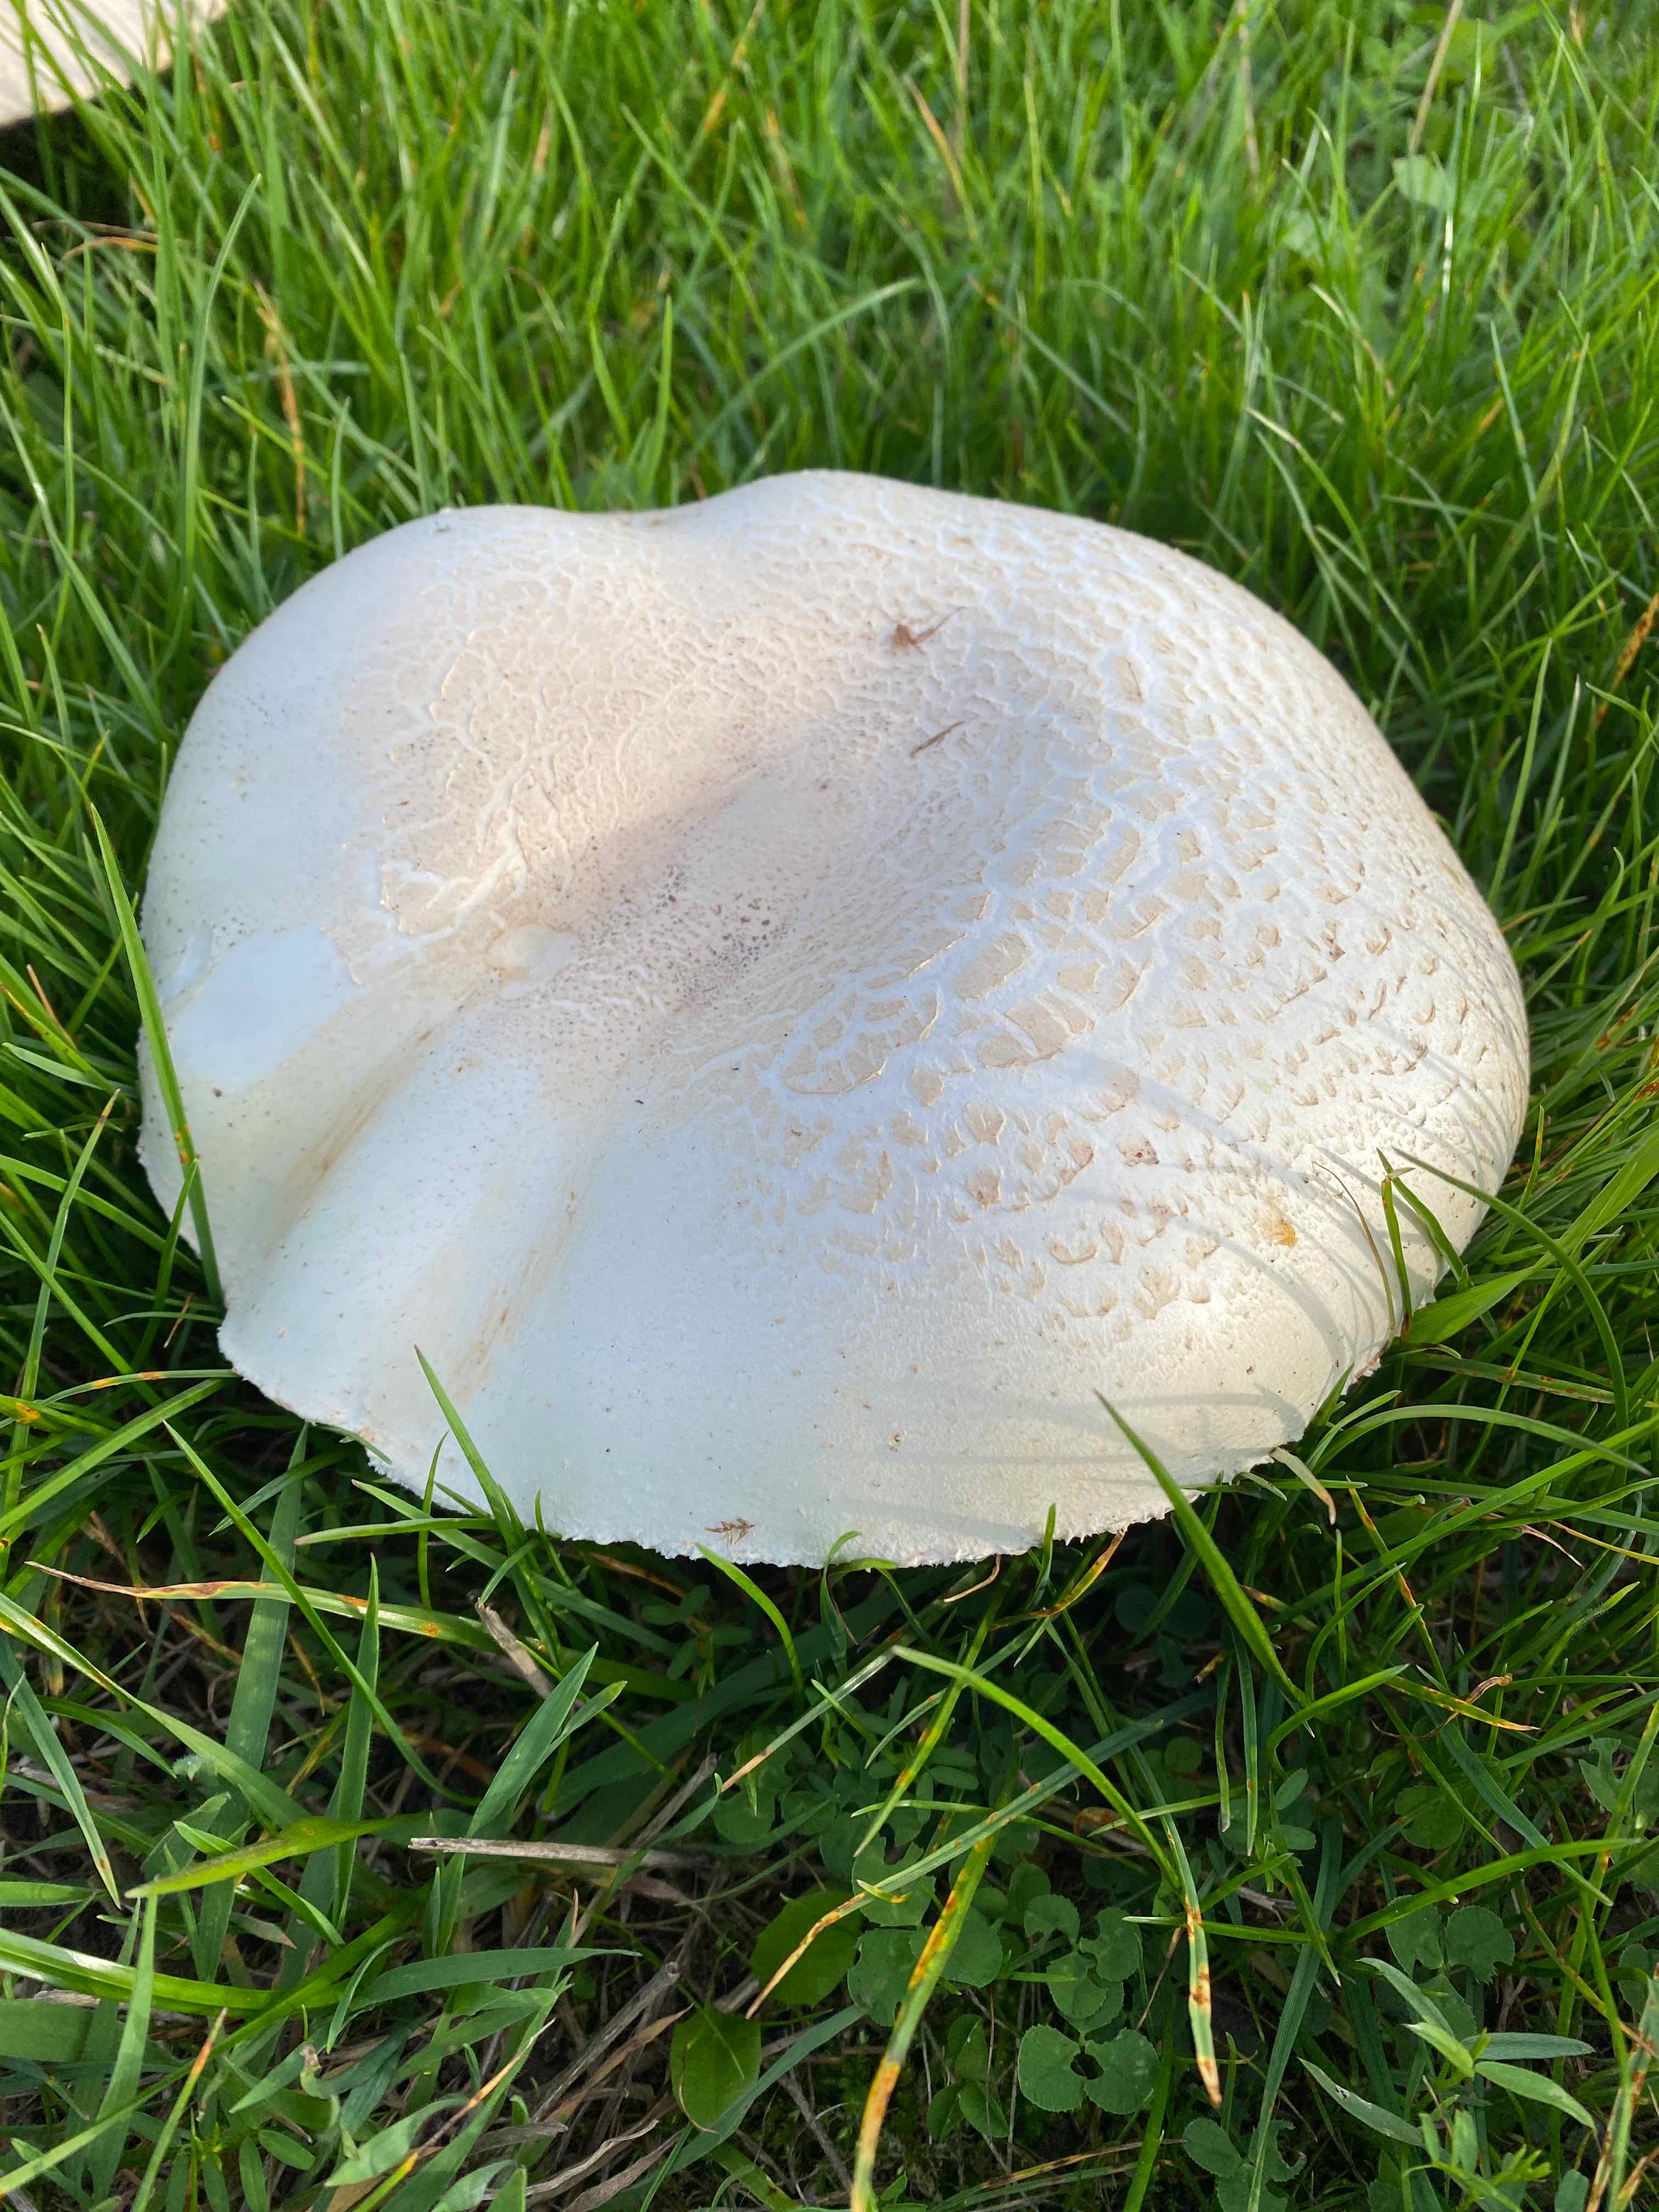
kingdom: Fungi
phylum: Basidiomycota
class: Agaricomycetes
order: Agaricales
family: Agaricaceae
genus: Agaricus
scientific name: Agaricus campestris
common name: mark-champignon
